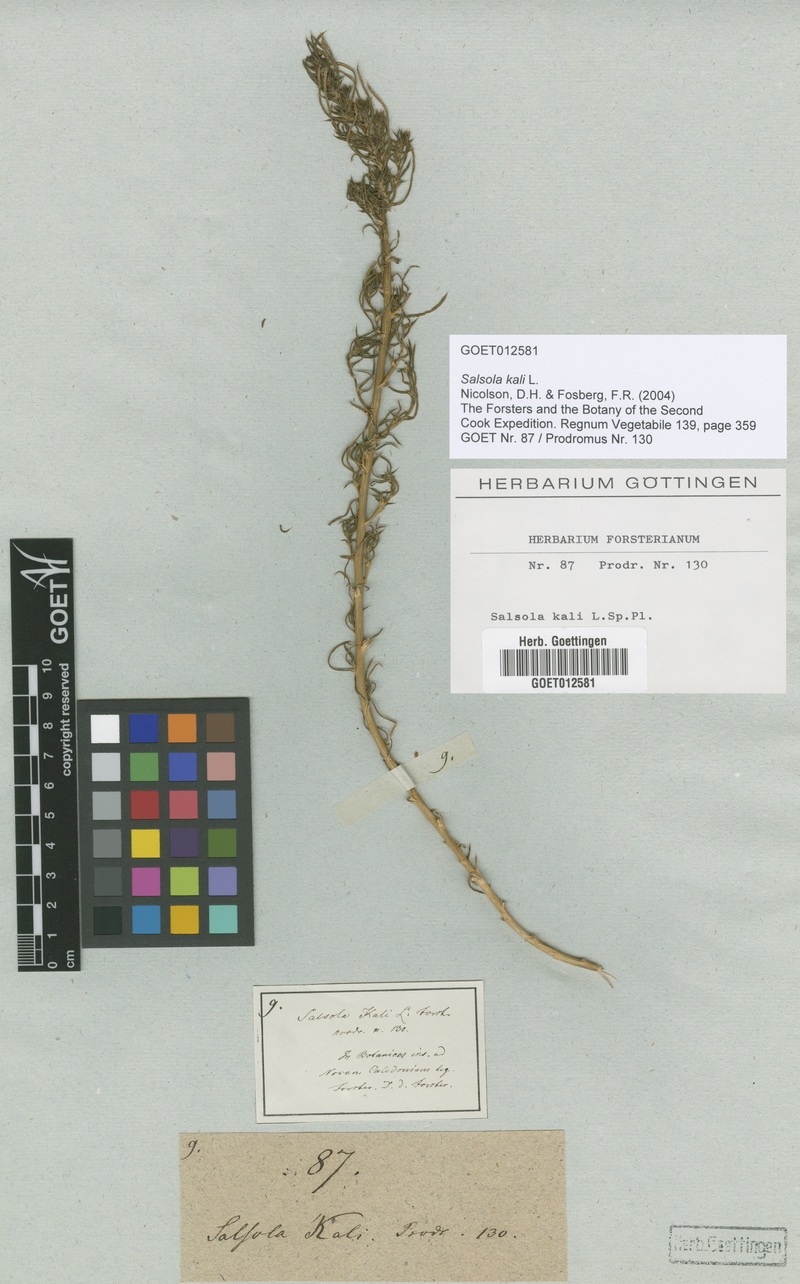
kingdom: Plantae
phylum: Tracheophyta
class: Magnoliopsida
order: Caryophyllales
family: Amaranthaceae
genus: Salsola
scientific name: Salsola kali
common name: Saltwort
